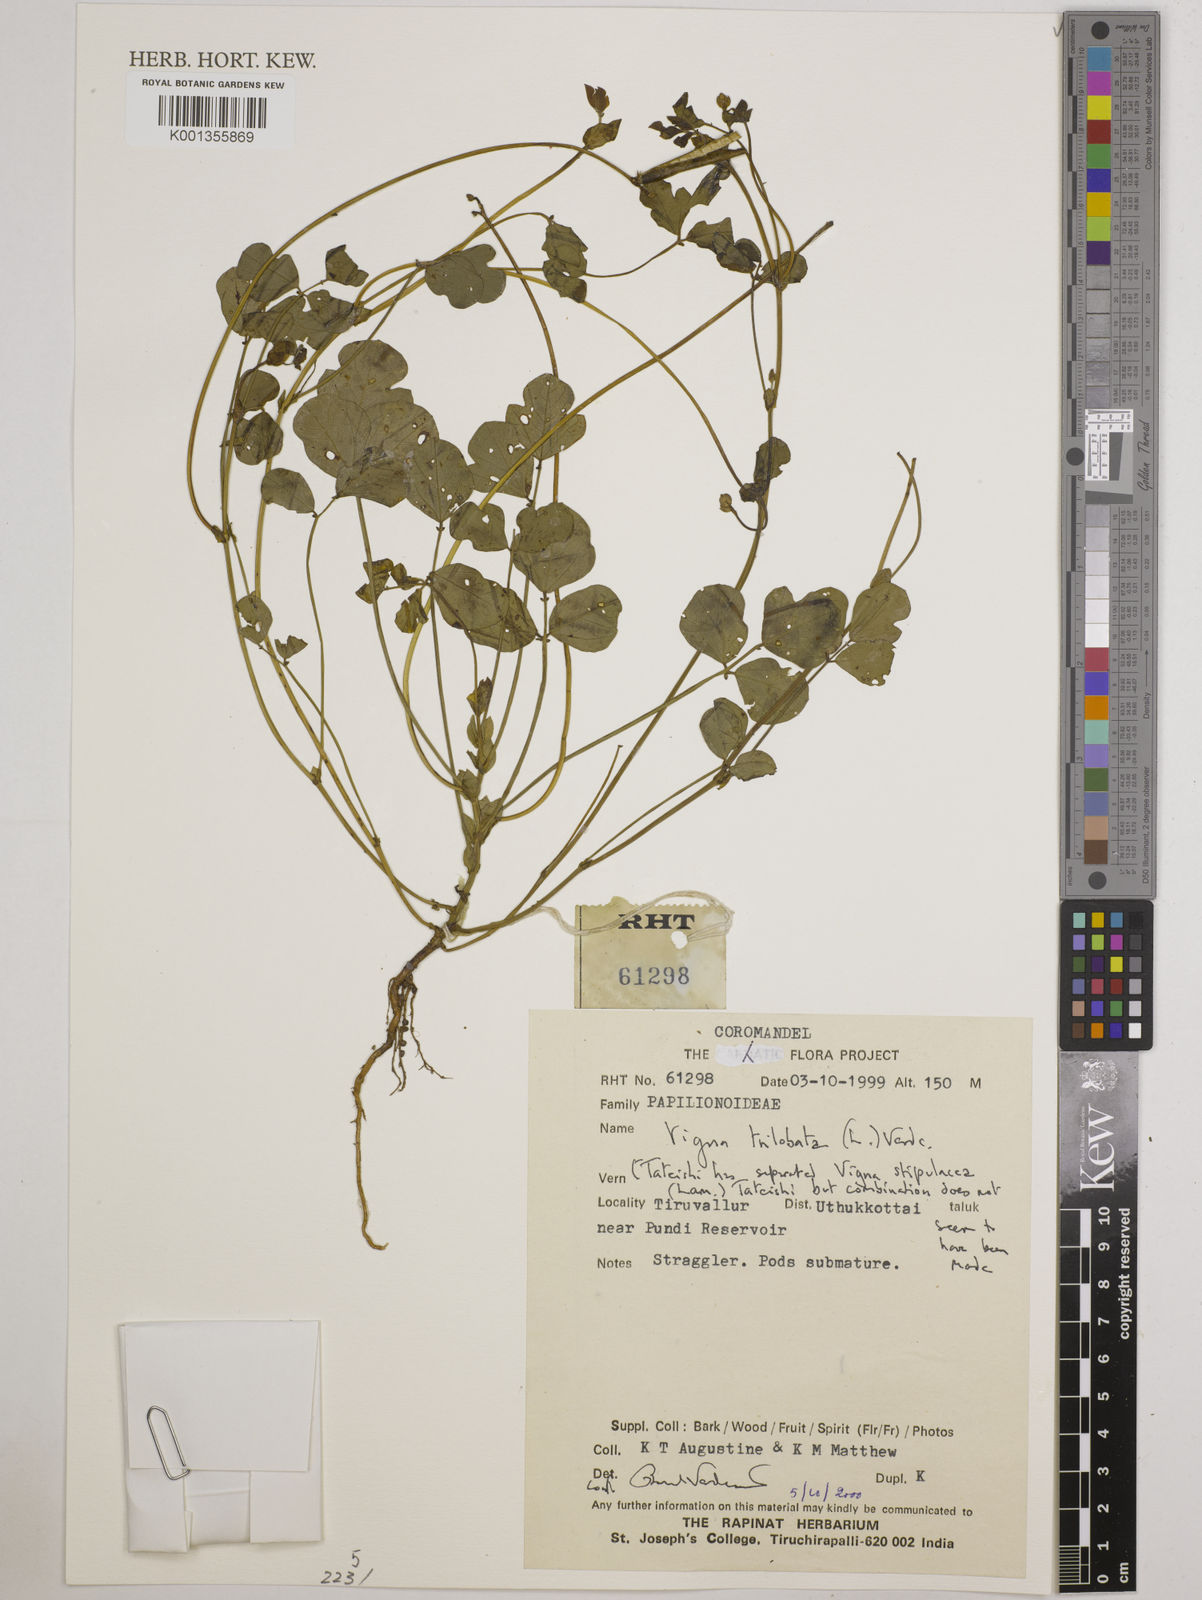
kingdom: Plantae
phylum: Tracheophyta
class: Magnoliopsida
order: Fabales
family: Fabaceae
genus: Vigna
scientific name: Vigna trilobata
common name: Jungli-bean
